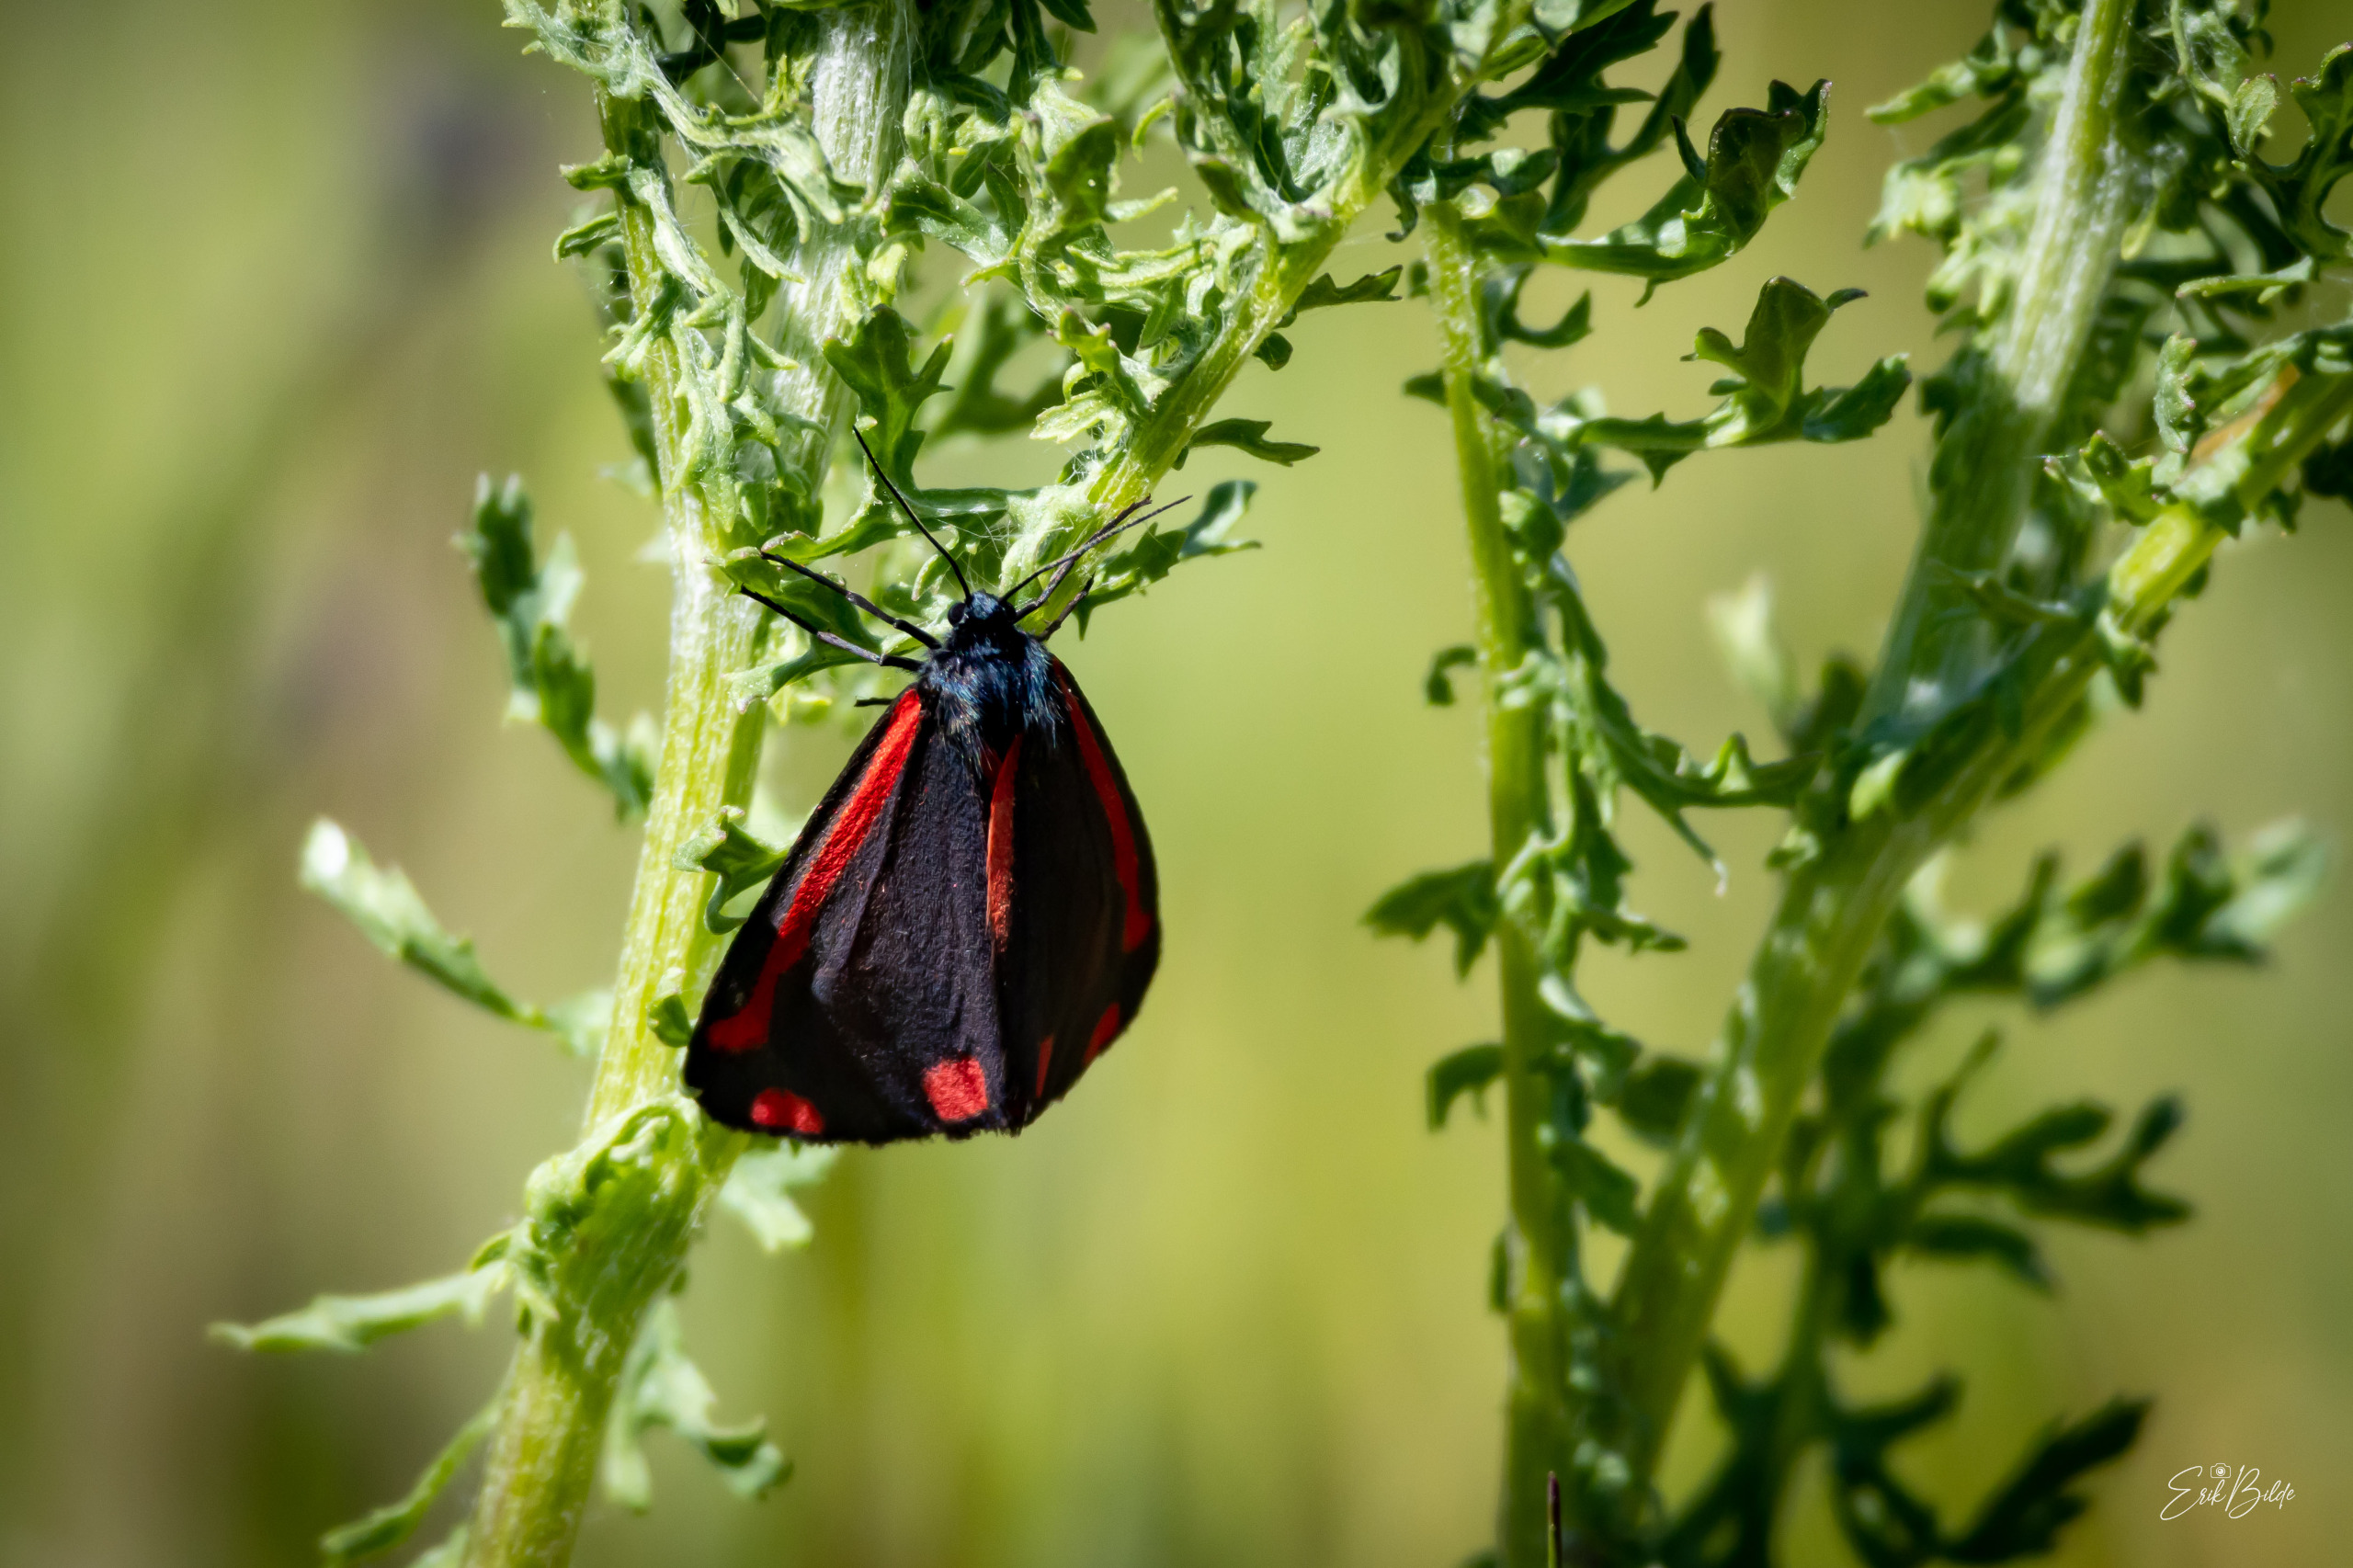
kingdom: Animalia
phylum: Arthropoda
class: Insecta
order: Lepidoptera
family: Erebidae
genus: Tyria
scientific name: Tyria jacobaeae
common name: Blodplet
